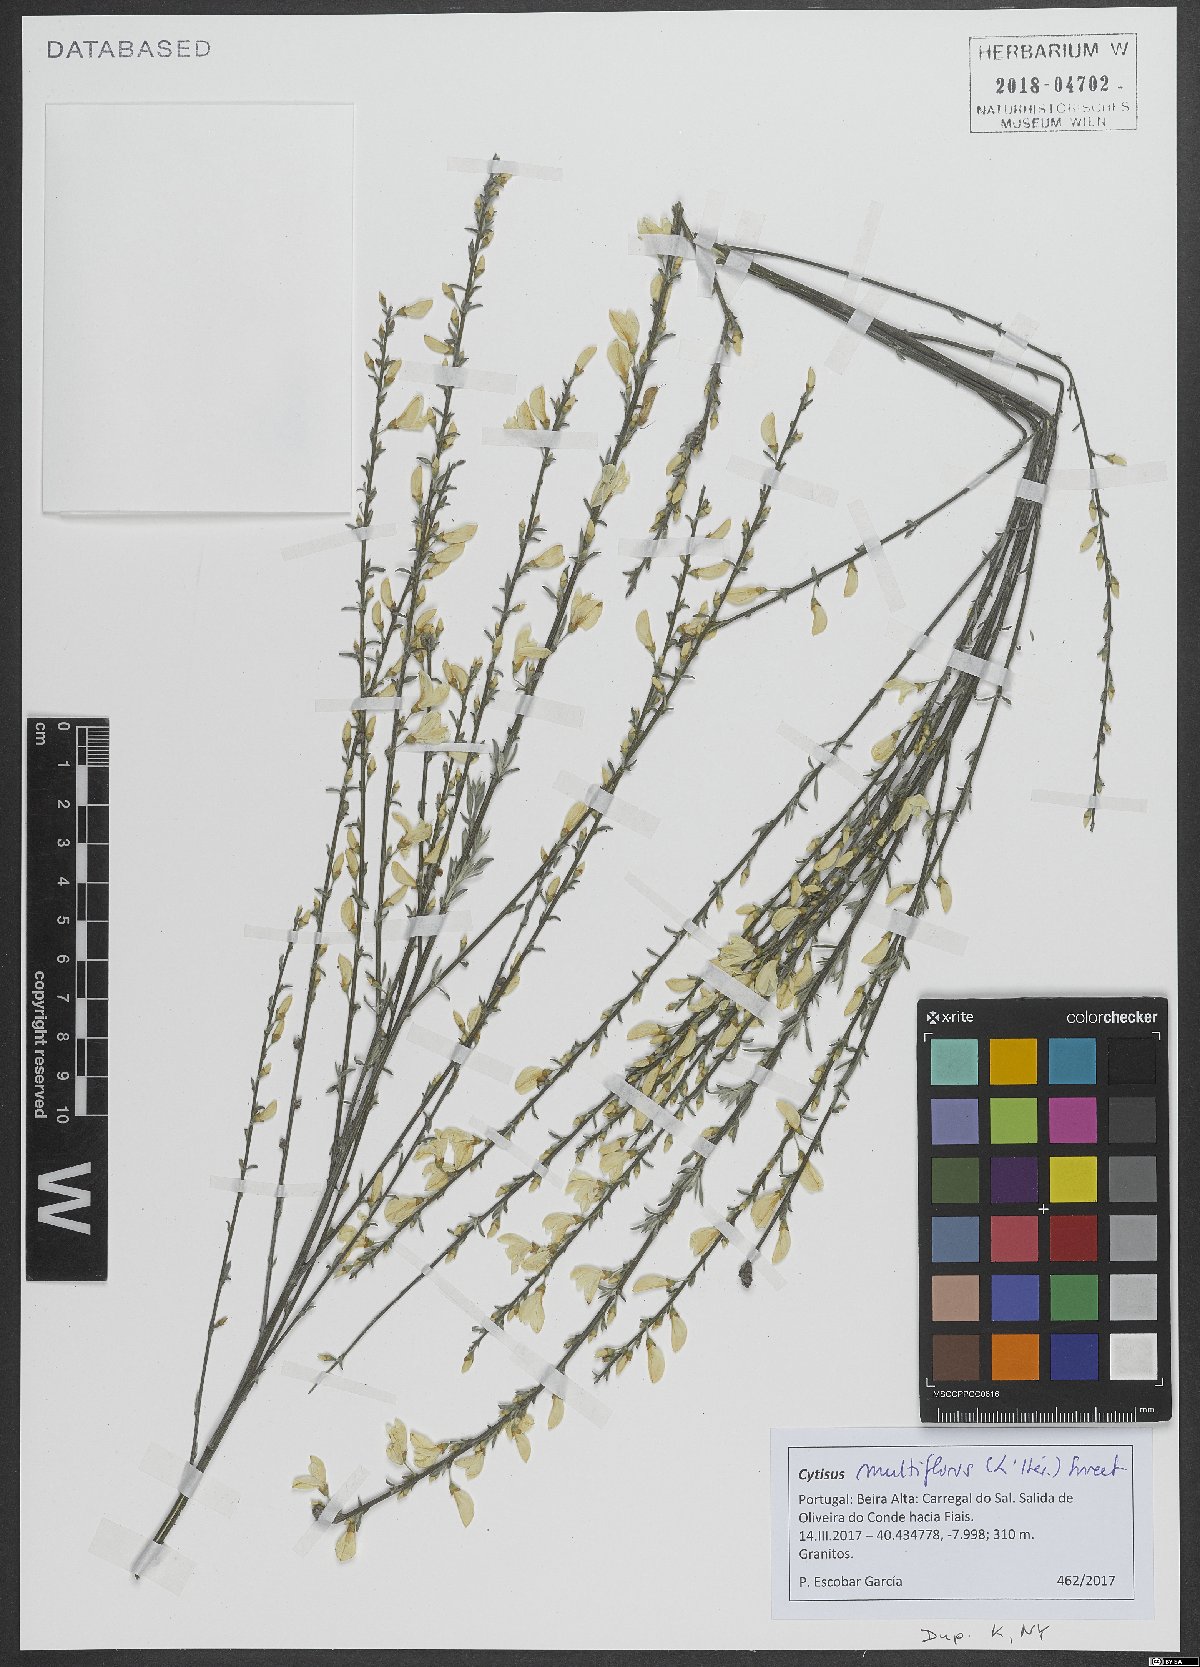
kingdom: Plantae
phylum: Tracheophyta
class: Magnoliopsida
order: Fabales
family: Fabaceae
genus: Cytisus
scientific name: Cytisus multiflorus
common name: White broom
